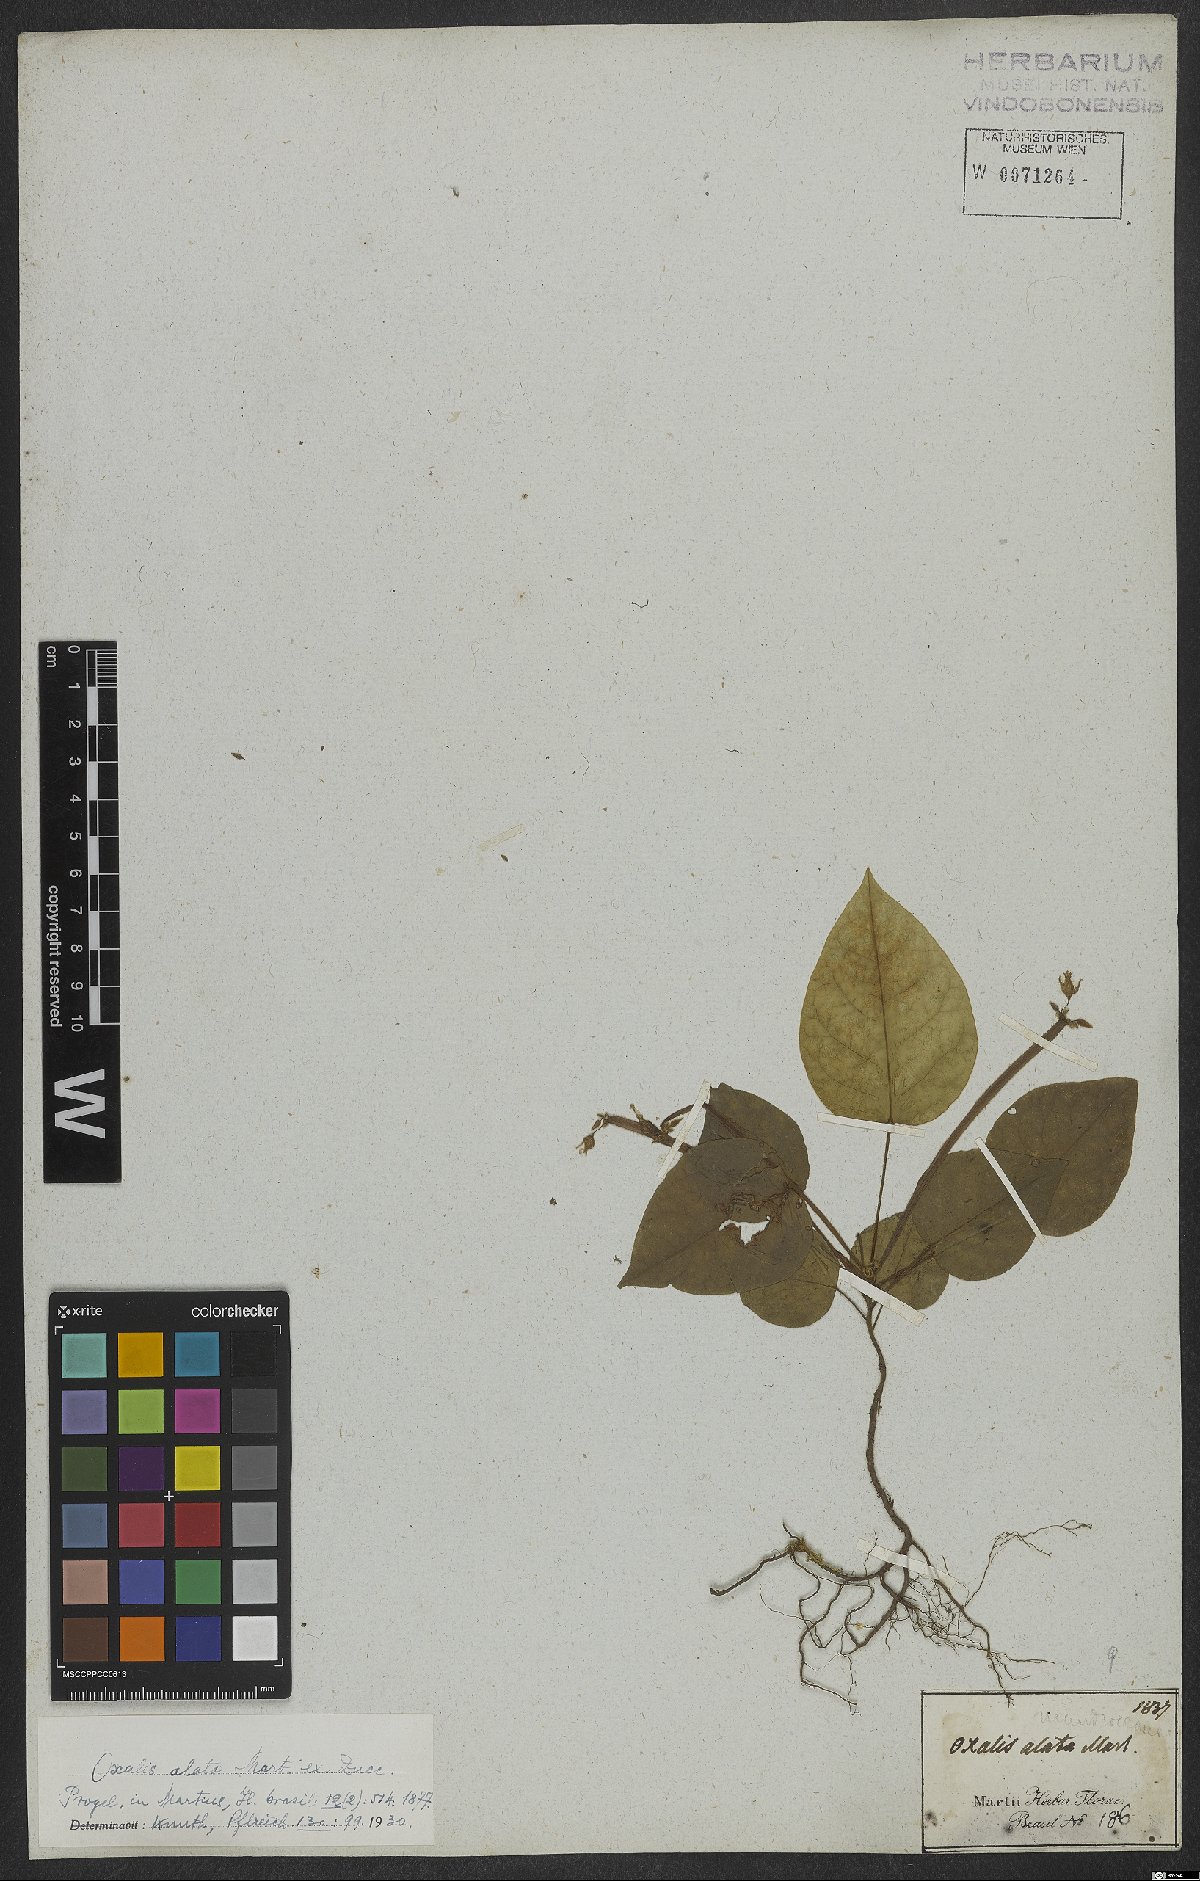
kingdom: Plantae
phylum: Tracheophyta
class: Magnoliopsida
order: Oxalidales
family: Oxalidaceae
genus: Oxalis
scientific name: Oxalis alata
